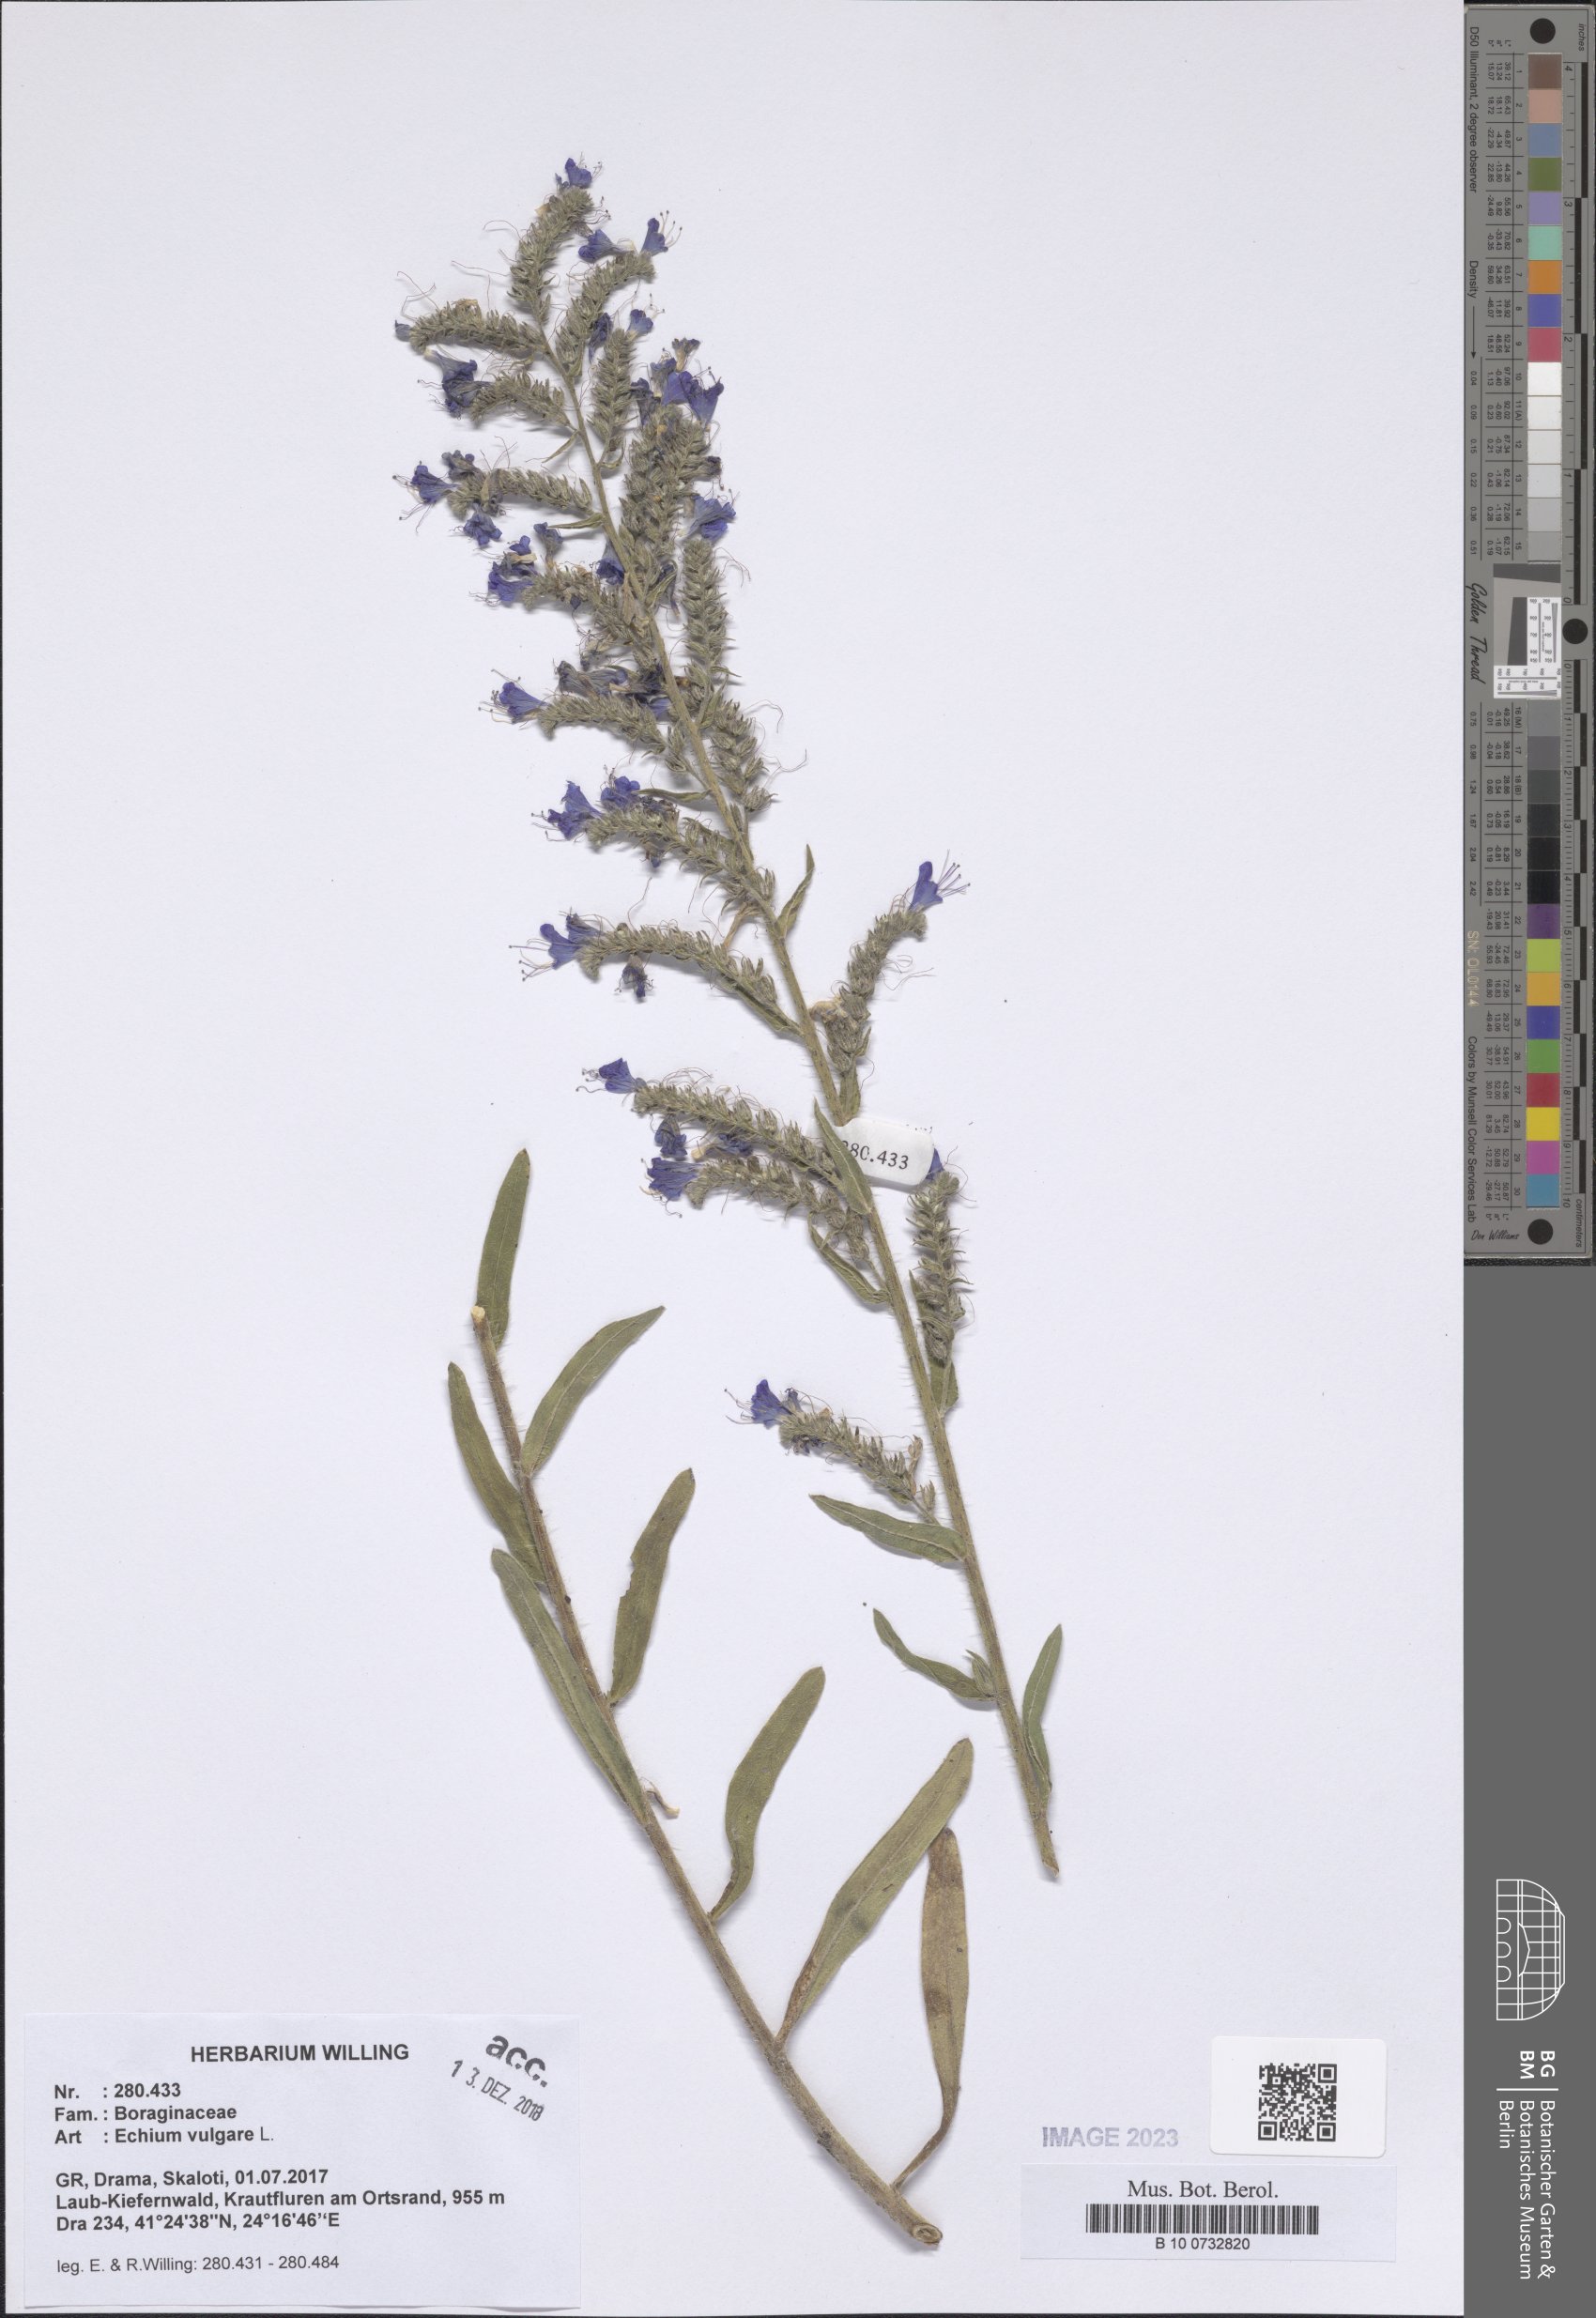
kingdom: Plantae
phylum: Tracheophyta
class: Magnoliopsida
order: Boraginales
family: Boraginaceae
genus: Echium
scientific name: Echium vulgare
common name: Common viper's bugloss
